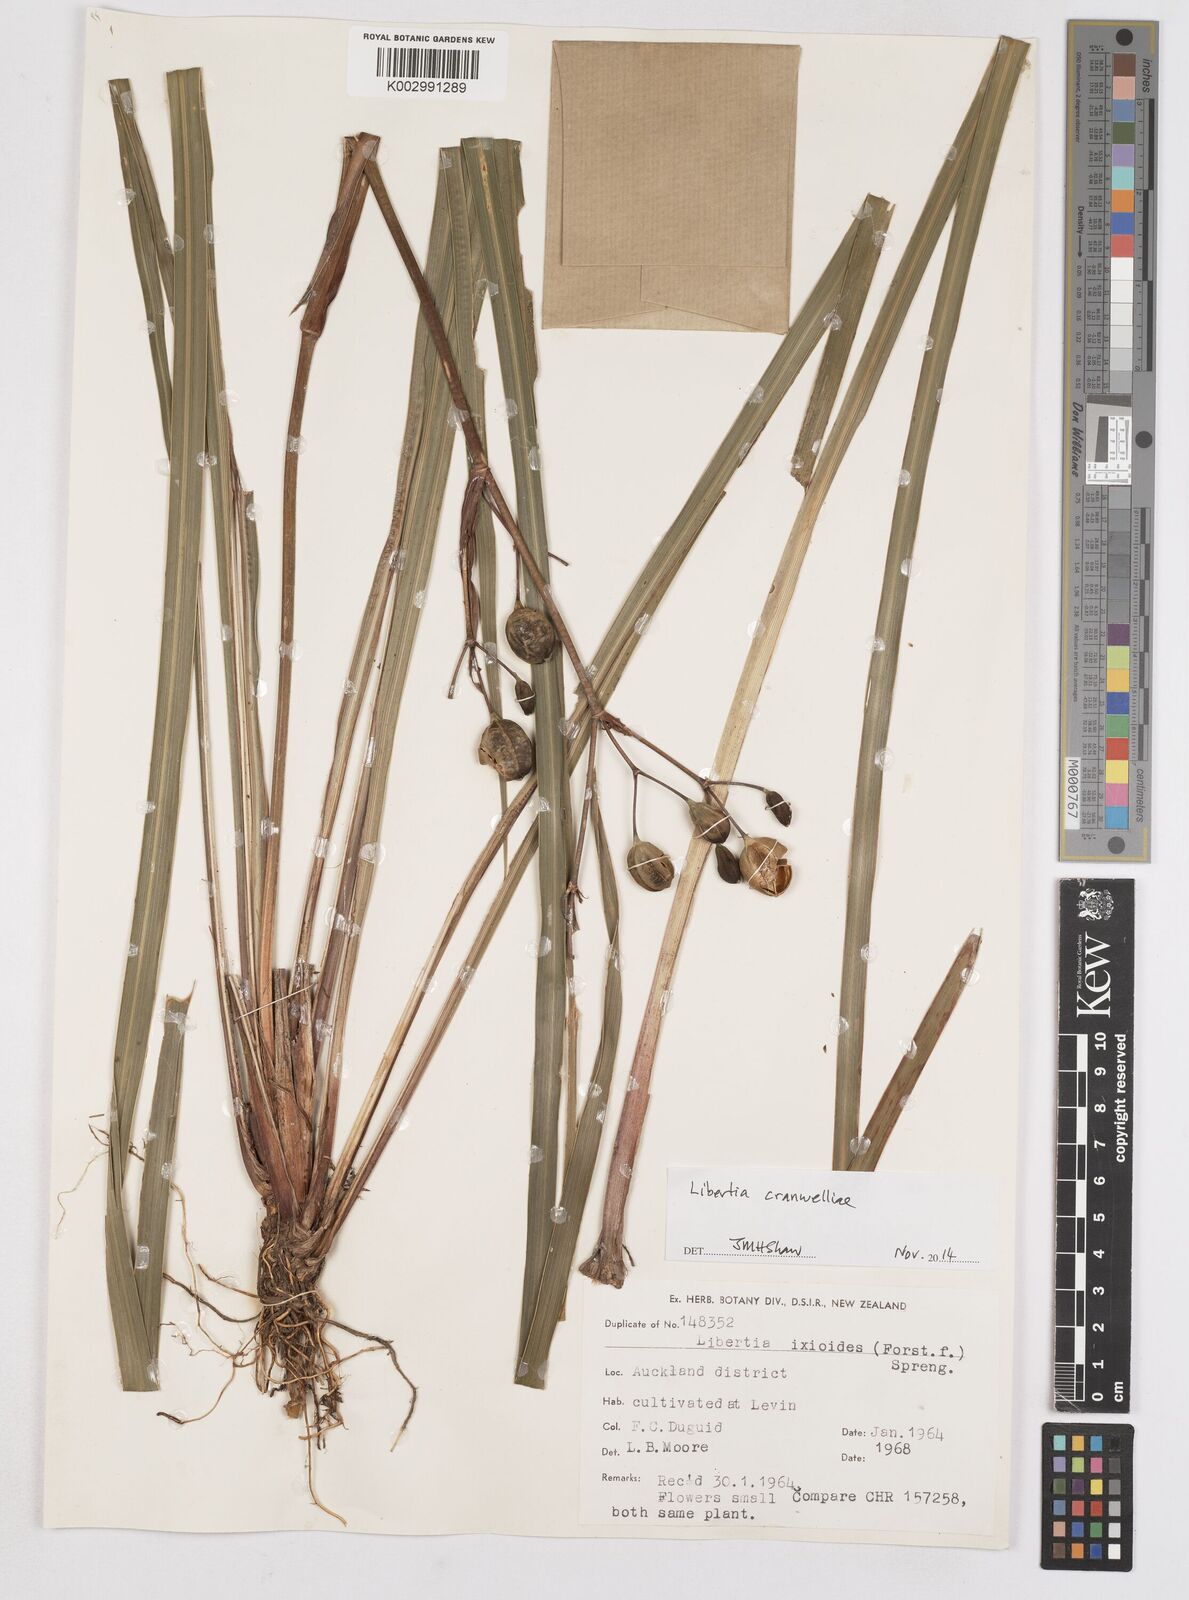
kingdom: Plantae
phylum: Tracheophyta
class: Liliopsida
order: Asparagales
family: Iridaceae
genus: Libertia
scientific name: Libertia cranwelliae
